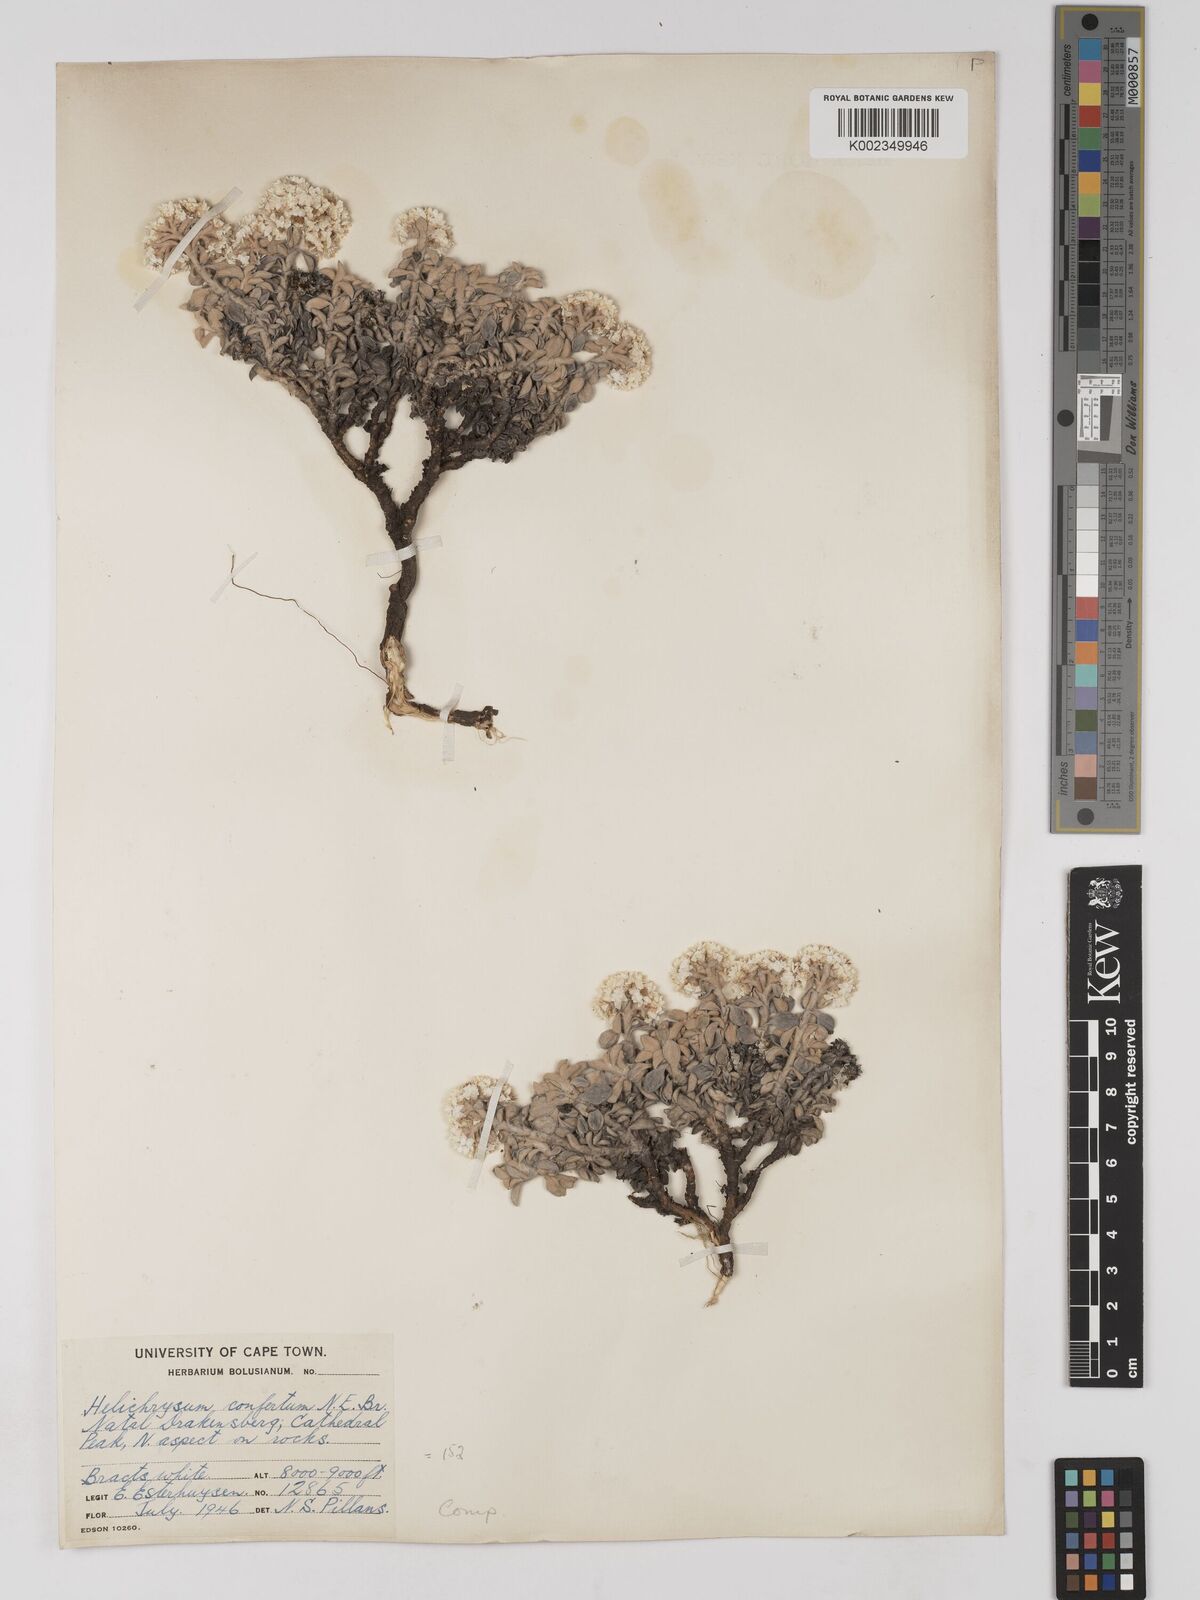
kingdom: Plantae
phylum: Tracheophyta
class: Magnoliopsida
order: Asterales
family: Asteraceae
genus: Helichrysum
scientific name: Helichrysum confertum
